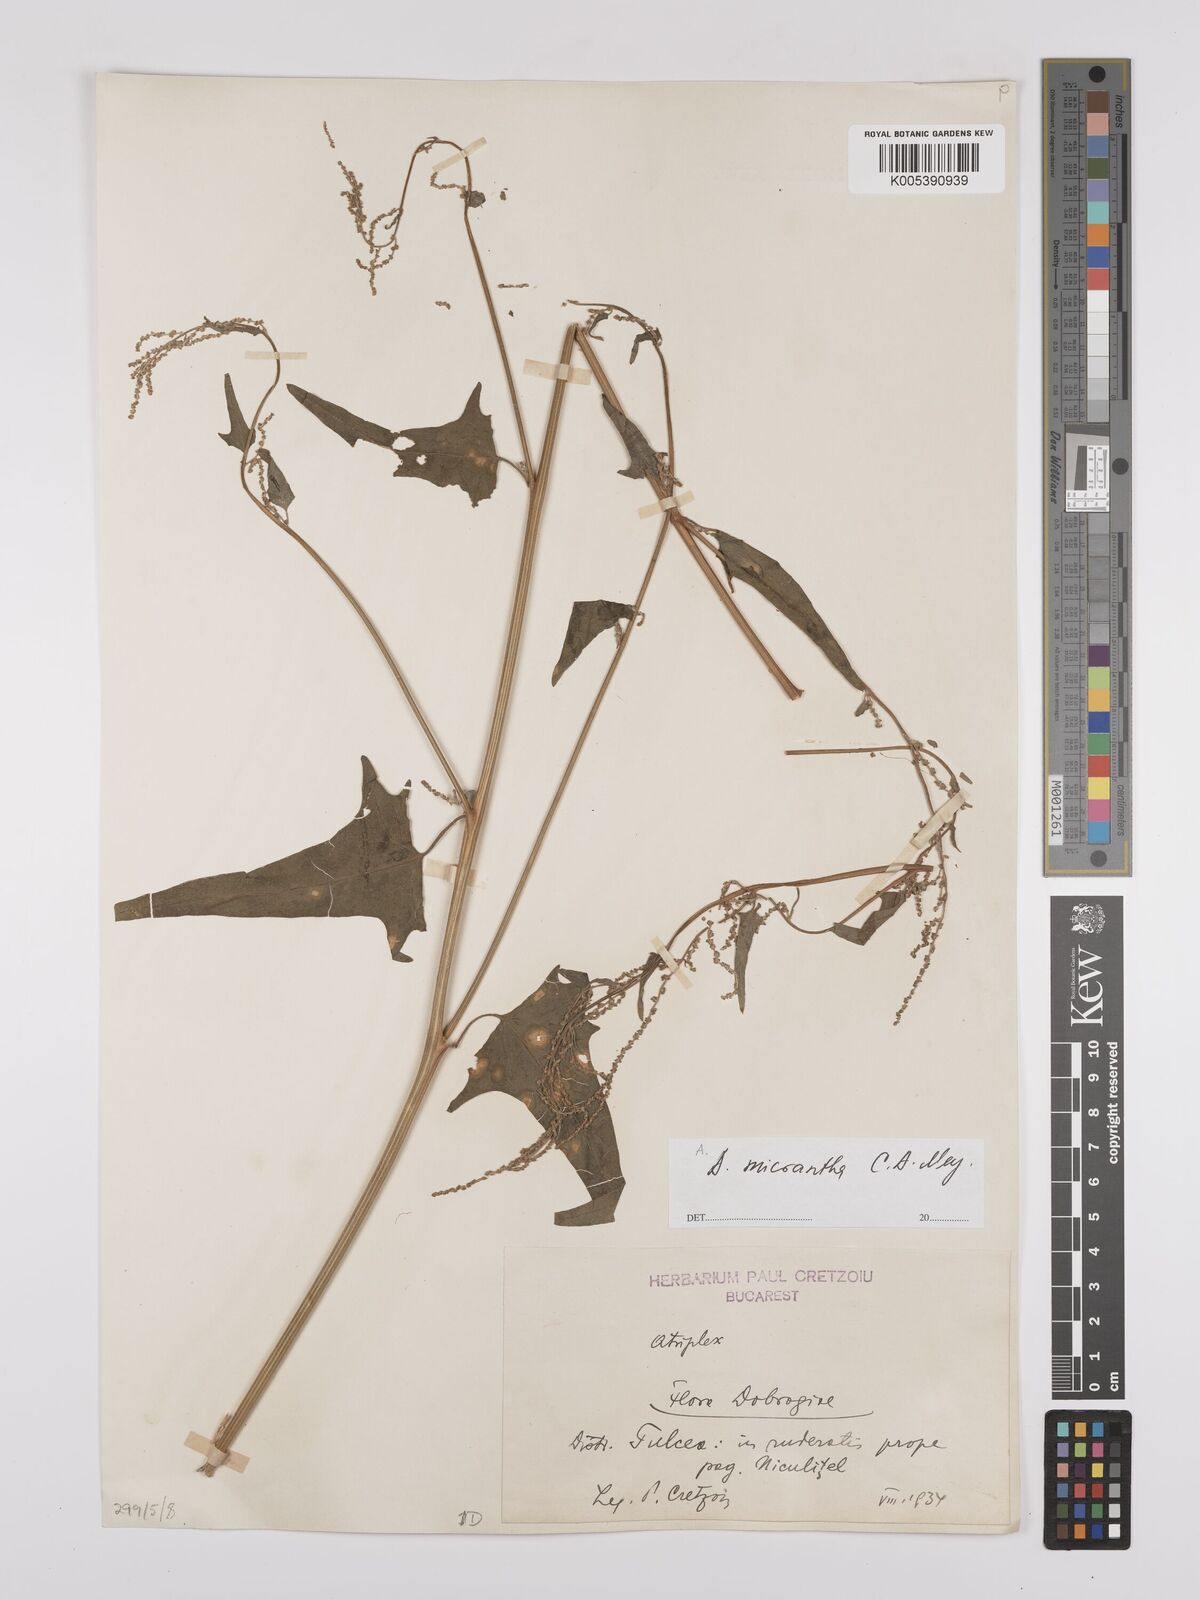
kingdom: Plantae
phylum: Tracheophyta
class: Magnoliopsida
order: Caryophyllales
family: Amaranthaceae
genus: Atriplex
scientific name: Atriplex micrantha
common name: Twoscale saltbush
